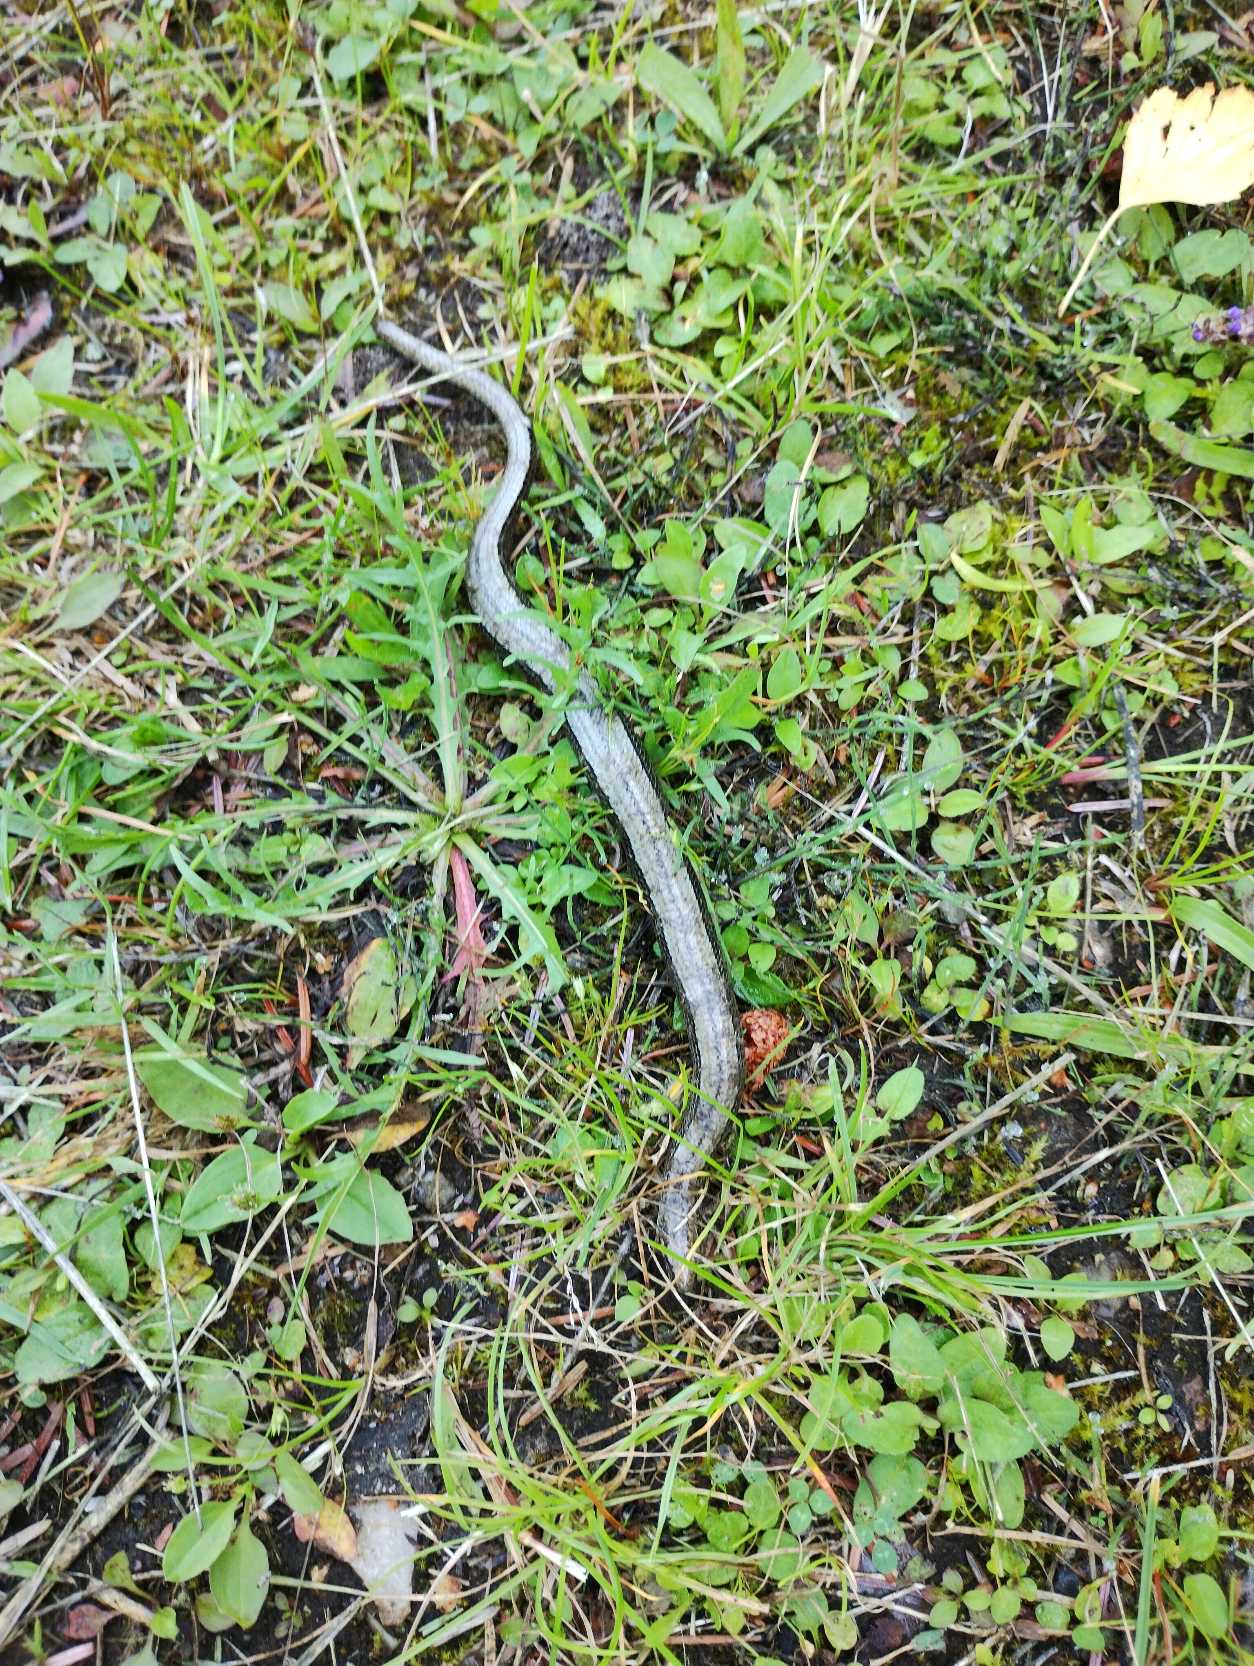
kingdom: Animalia
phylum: Chordata
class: Squamata
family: Anguidae
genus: Anguis
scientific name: Anguis fragilis
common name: Stålorm
